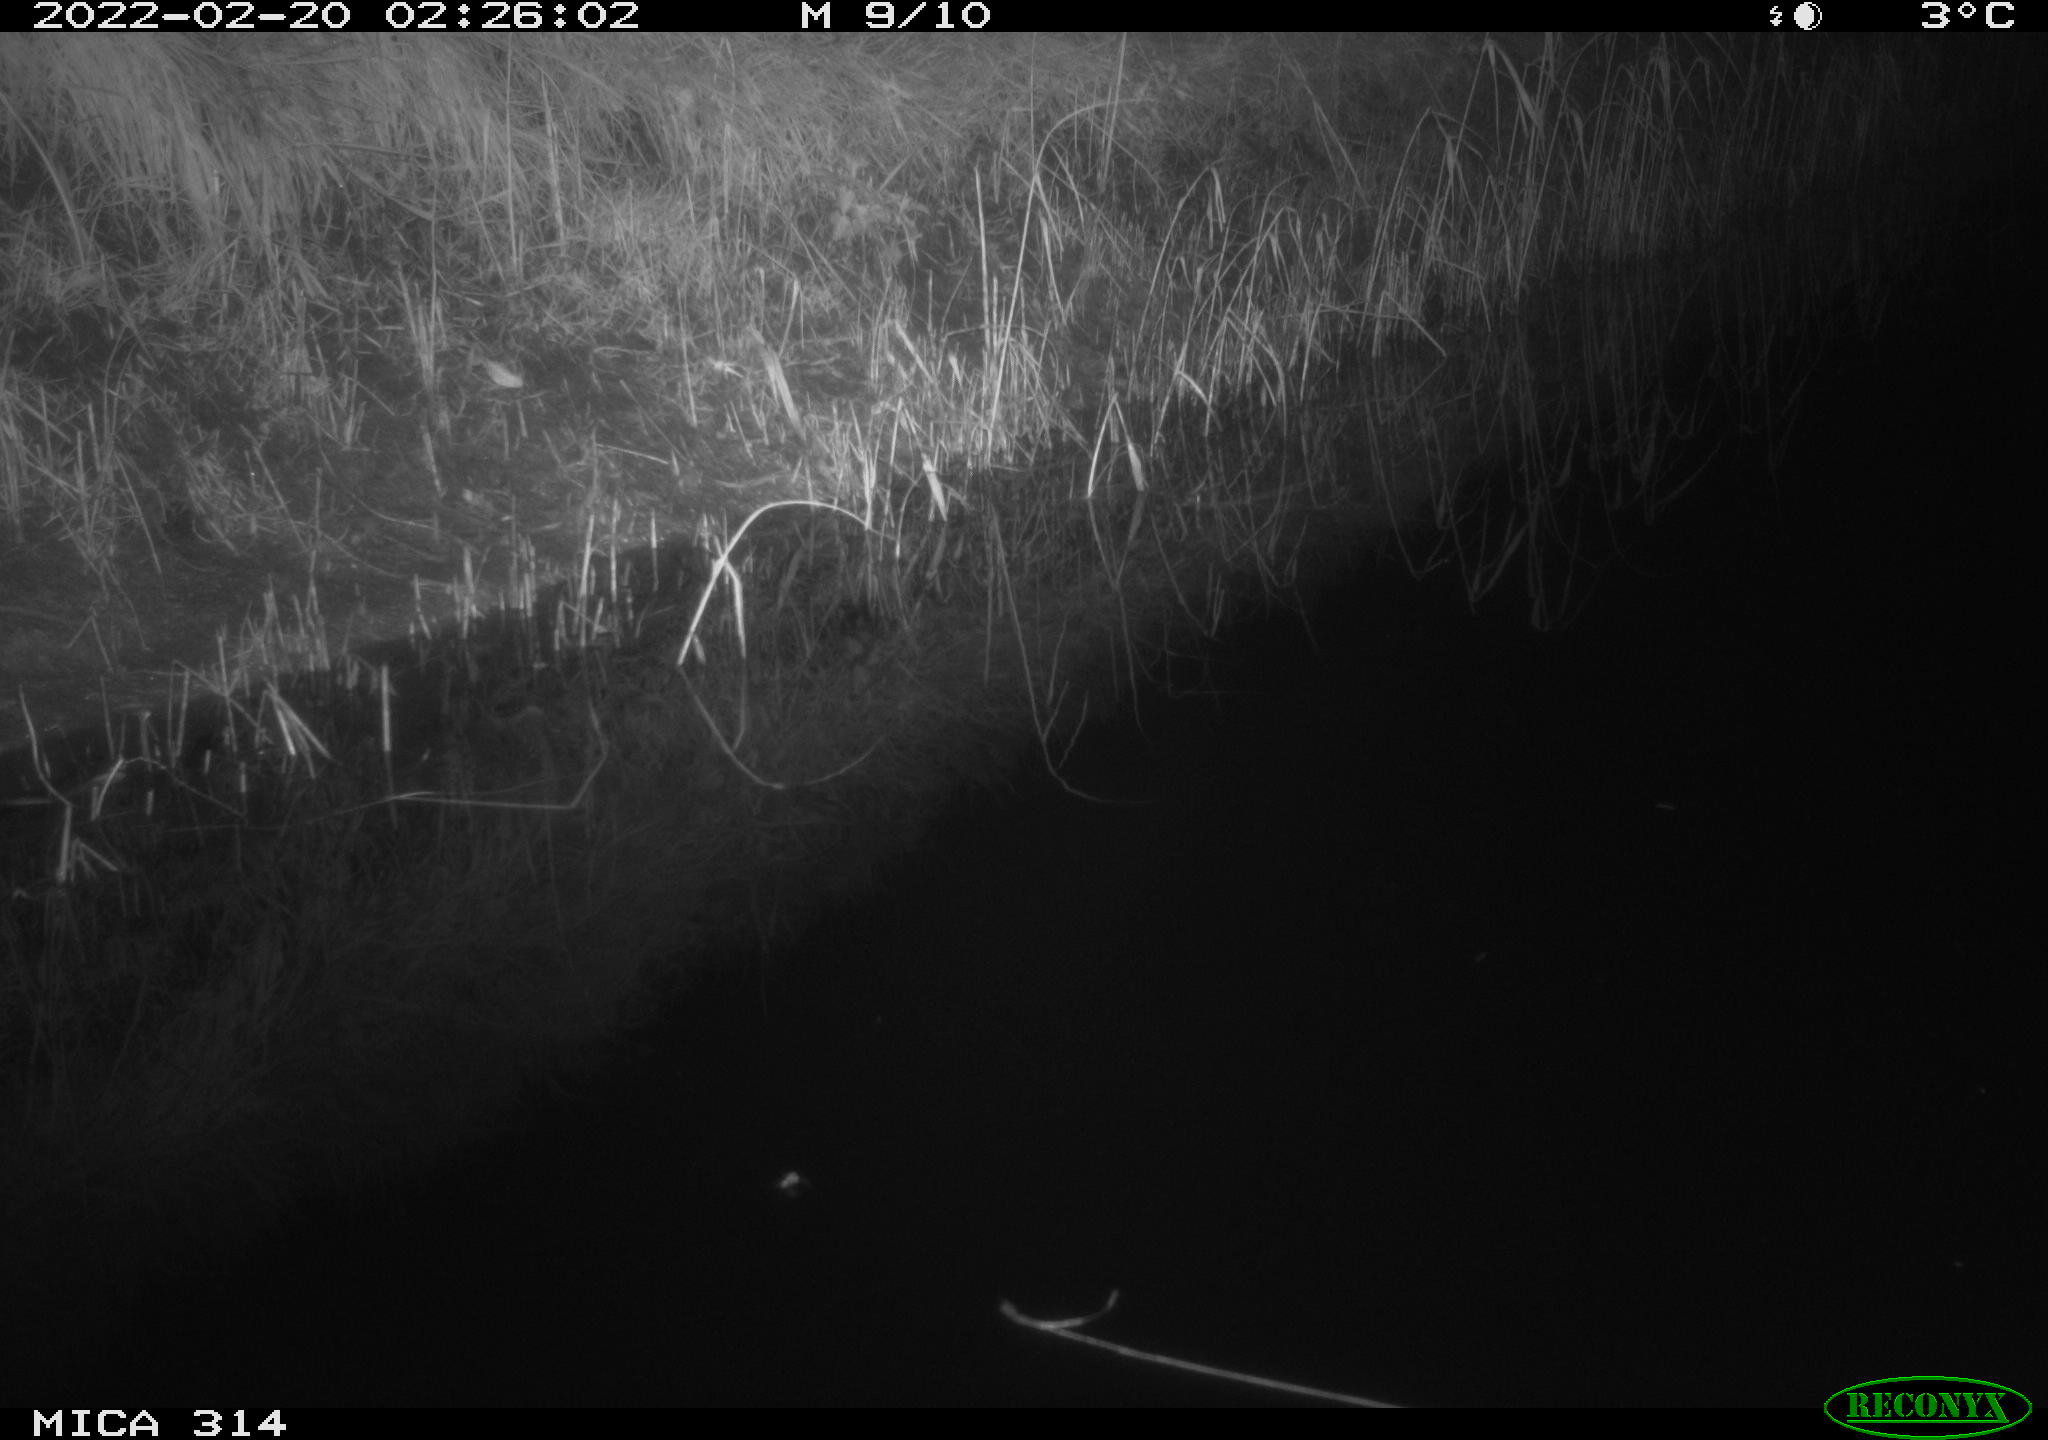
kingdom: Animalia
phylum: Chordata
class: Mammalia
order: Rodentia
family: Muridae
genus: Rattus
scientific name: Rattus norvegicus
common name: Brown rat
